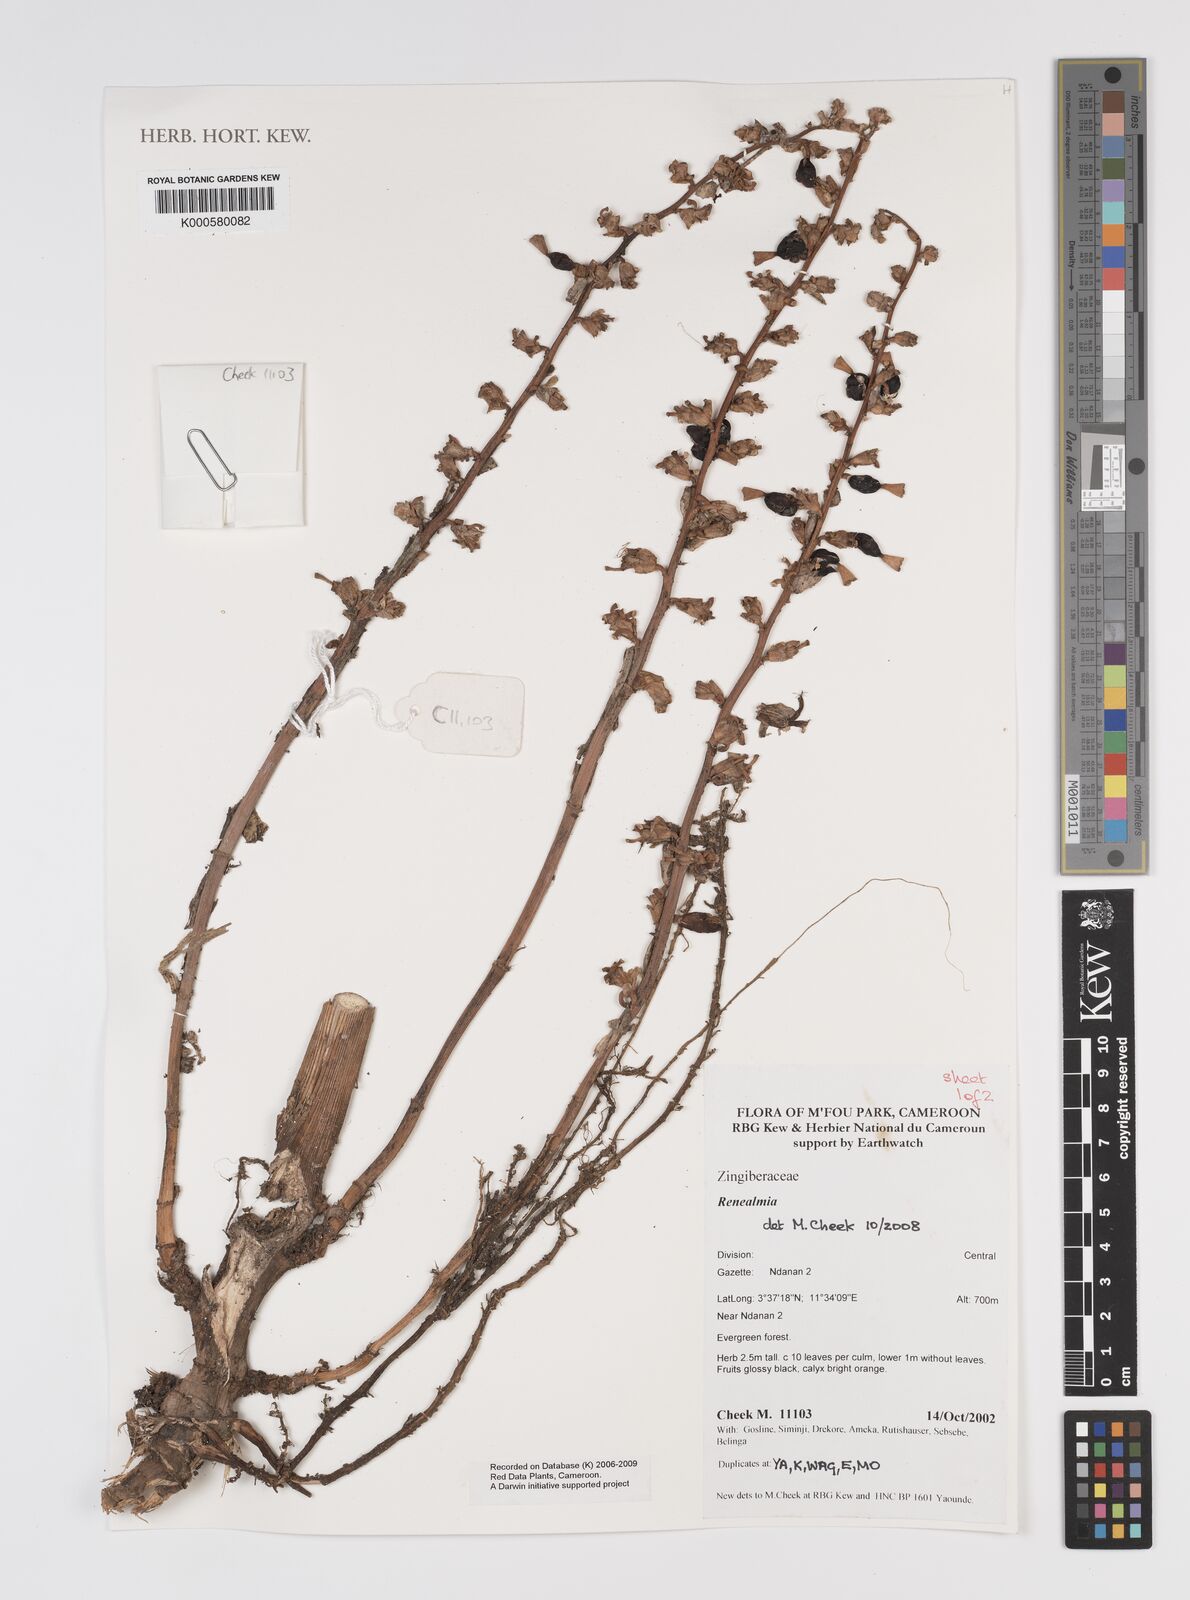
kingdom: Plantae
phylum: Tracheophyta
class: Liliopsida
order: Zingiberales
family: Zingiberaceae
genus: Renealmia
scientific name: Renealmia
